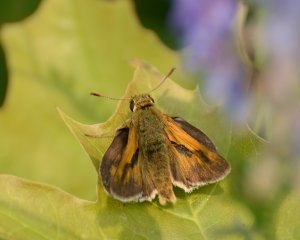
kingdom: Animalia
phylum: Arthropoda
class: Insecta
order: Lepidoptera
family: Hesperiidae
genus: Polites
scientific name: Polites
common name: Long Dash Skipper
